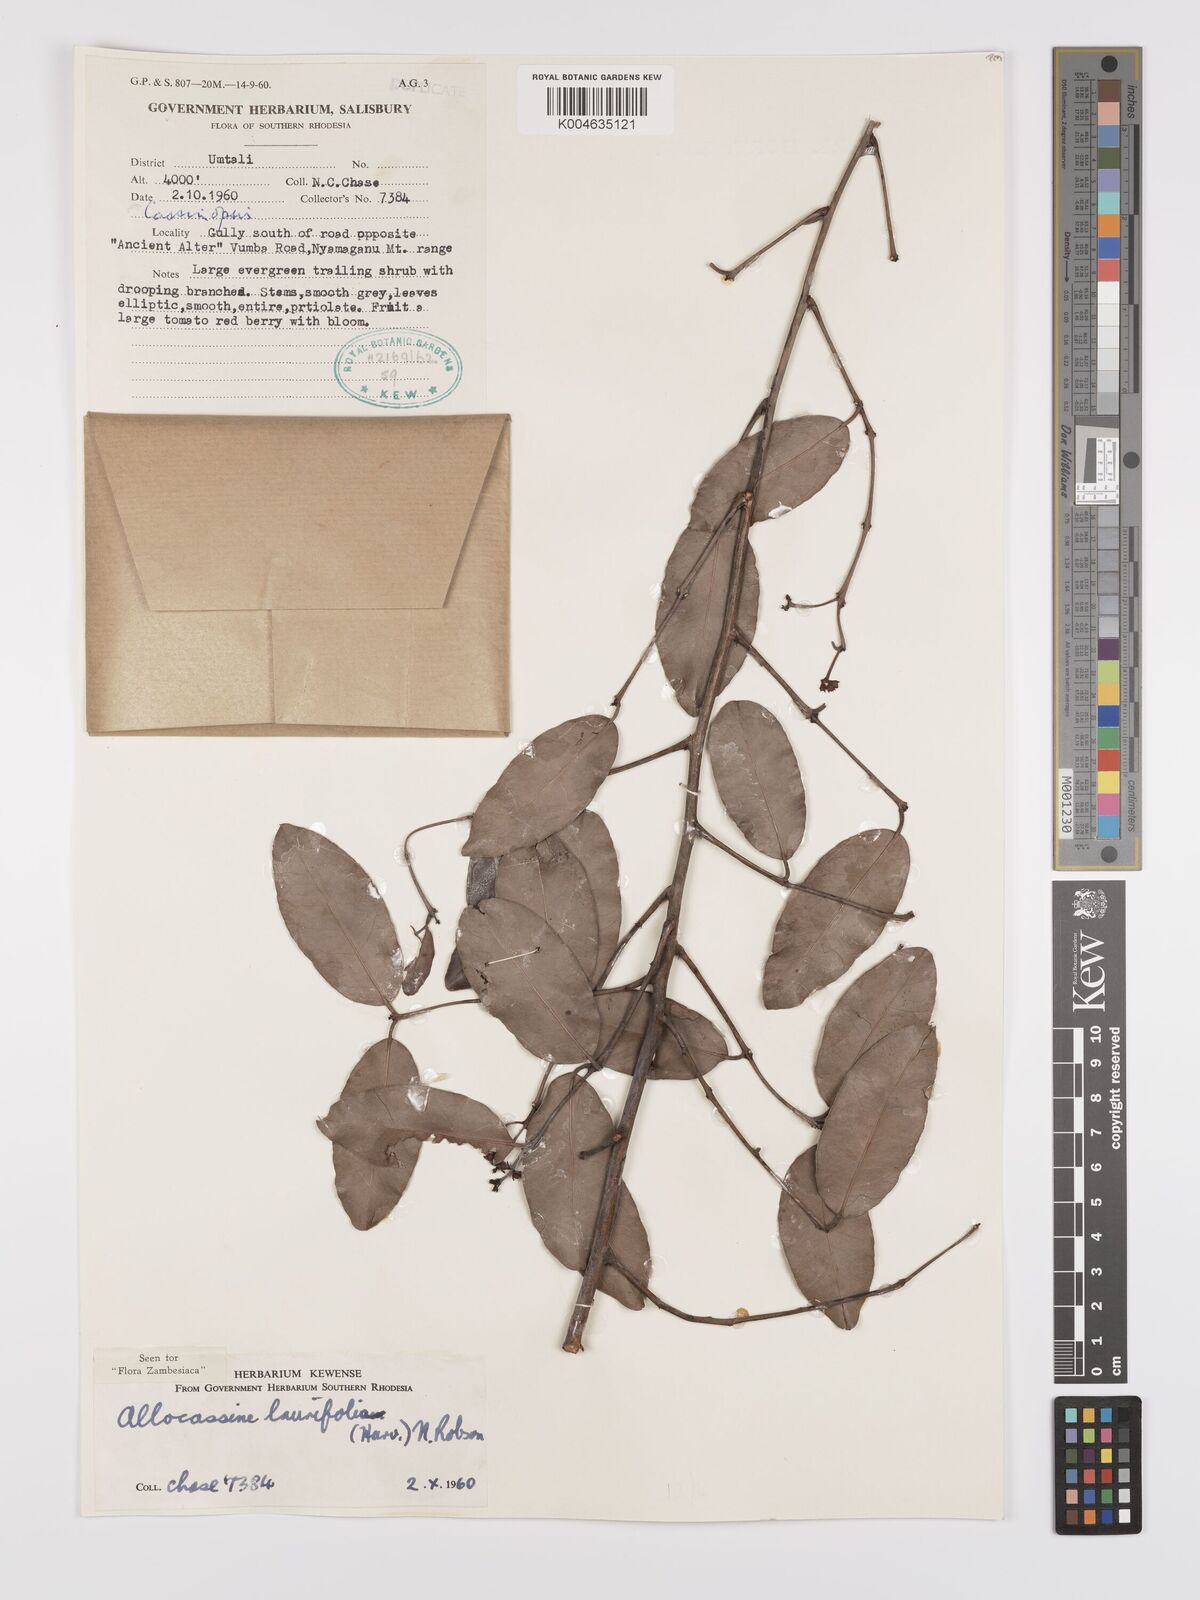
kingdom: Plantae
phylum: Tracheophyta
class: Magnoliopsida
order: Celastrales
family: Celastraceae
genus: Allocassine
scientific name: Allocassine laurifolia
